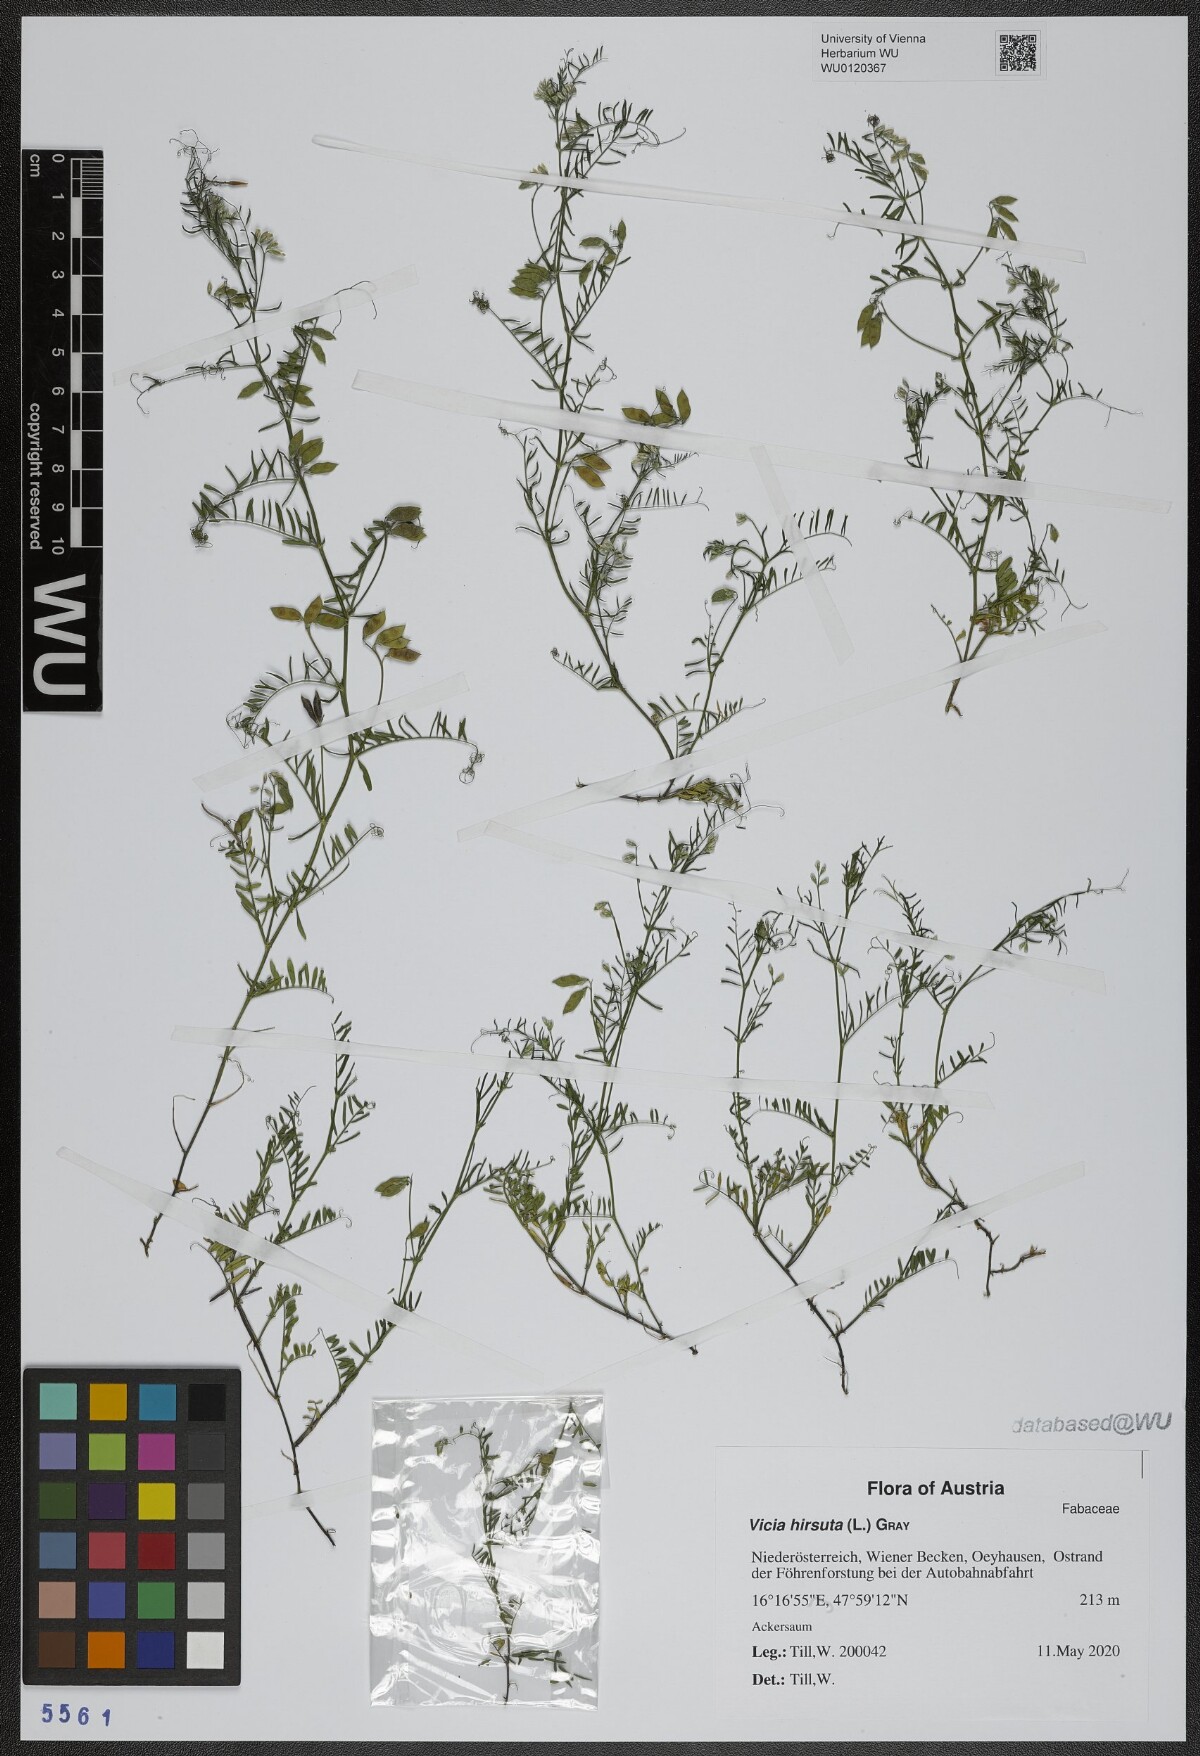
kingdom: Plantae
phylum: Tracheophyta
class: Magnoliopsida
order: Fabales
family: Fabaceae
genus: Vicia
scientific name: Vicia hirsuta
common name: Tiny vetch
